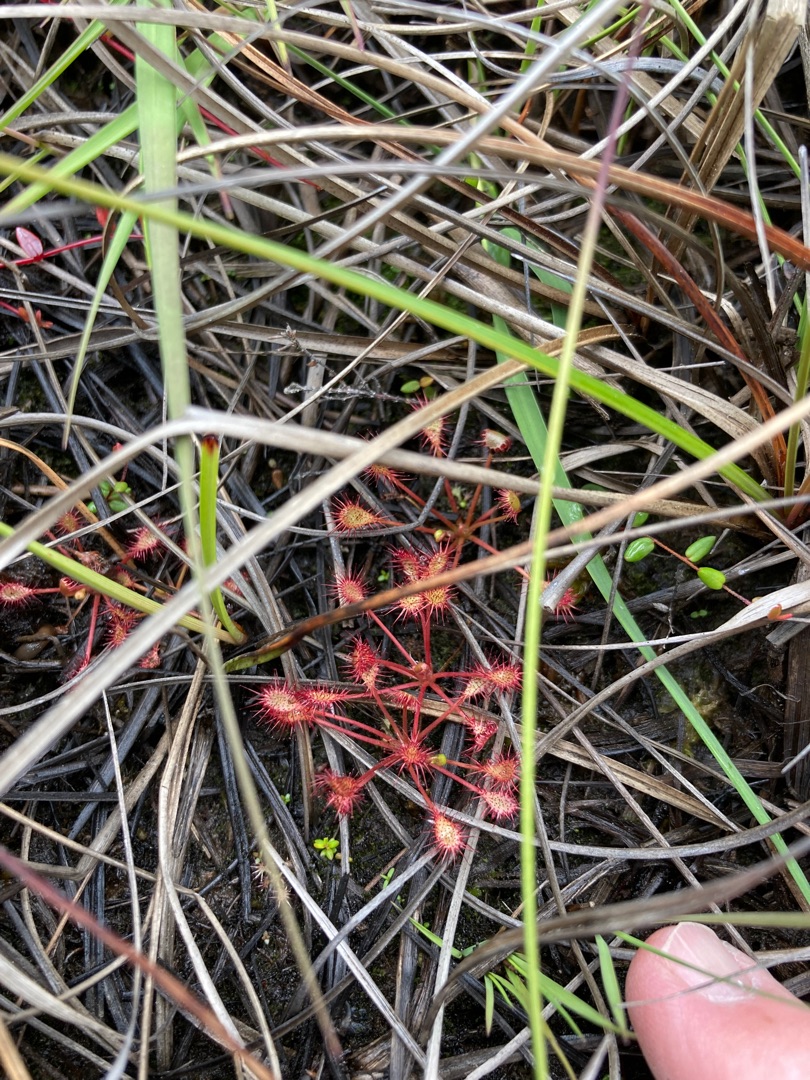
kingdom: Plantae
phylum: Tracheophyta
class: Magnoliopsida
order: Caryophyllales
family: Droseraceae
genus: Drosera
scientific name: Drosera intermedia
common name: Liden soldug
